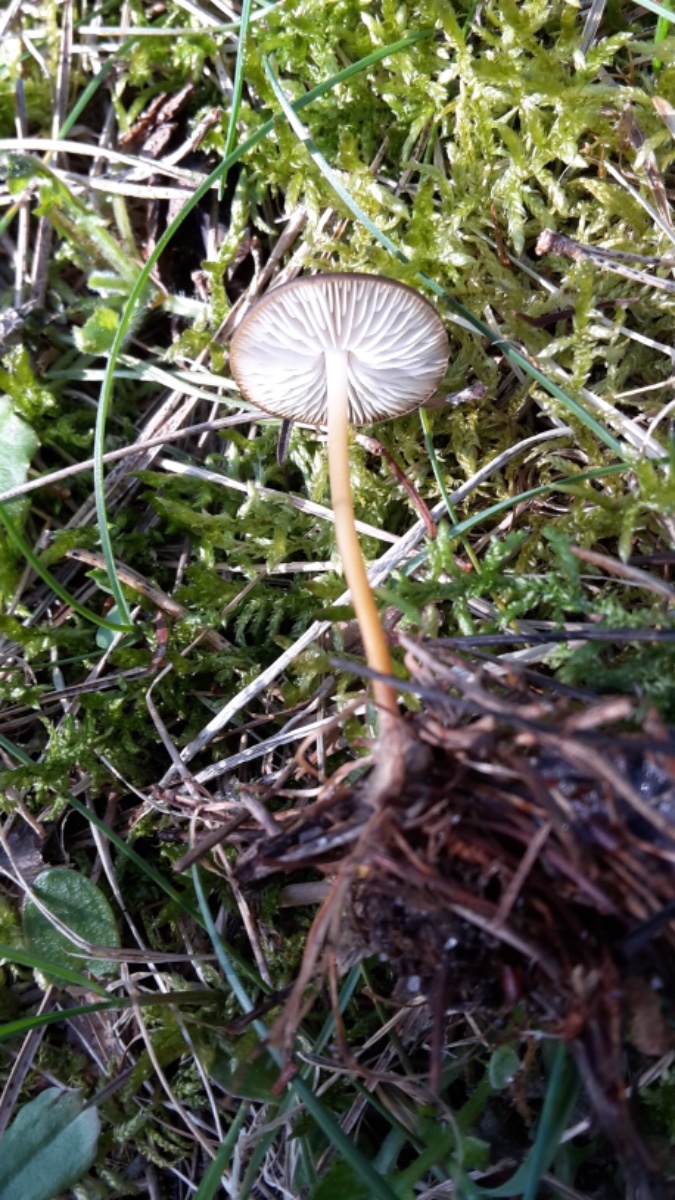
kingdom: Fungi
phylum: Basidiomycota
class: Agaricomycetes
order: Agaricales
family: Physalacriaceae
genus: Strobilurus
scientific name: Strobilurus stephanocystis
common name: fyrre-koglehat
